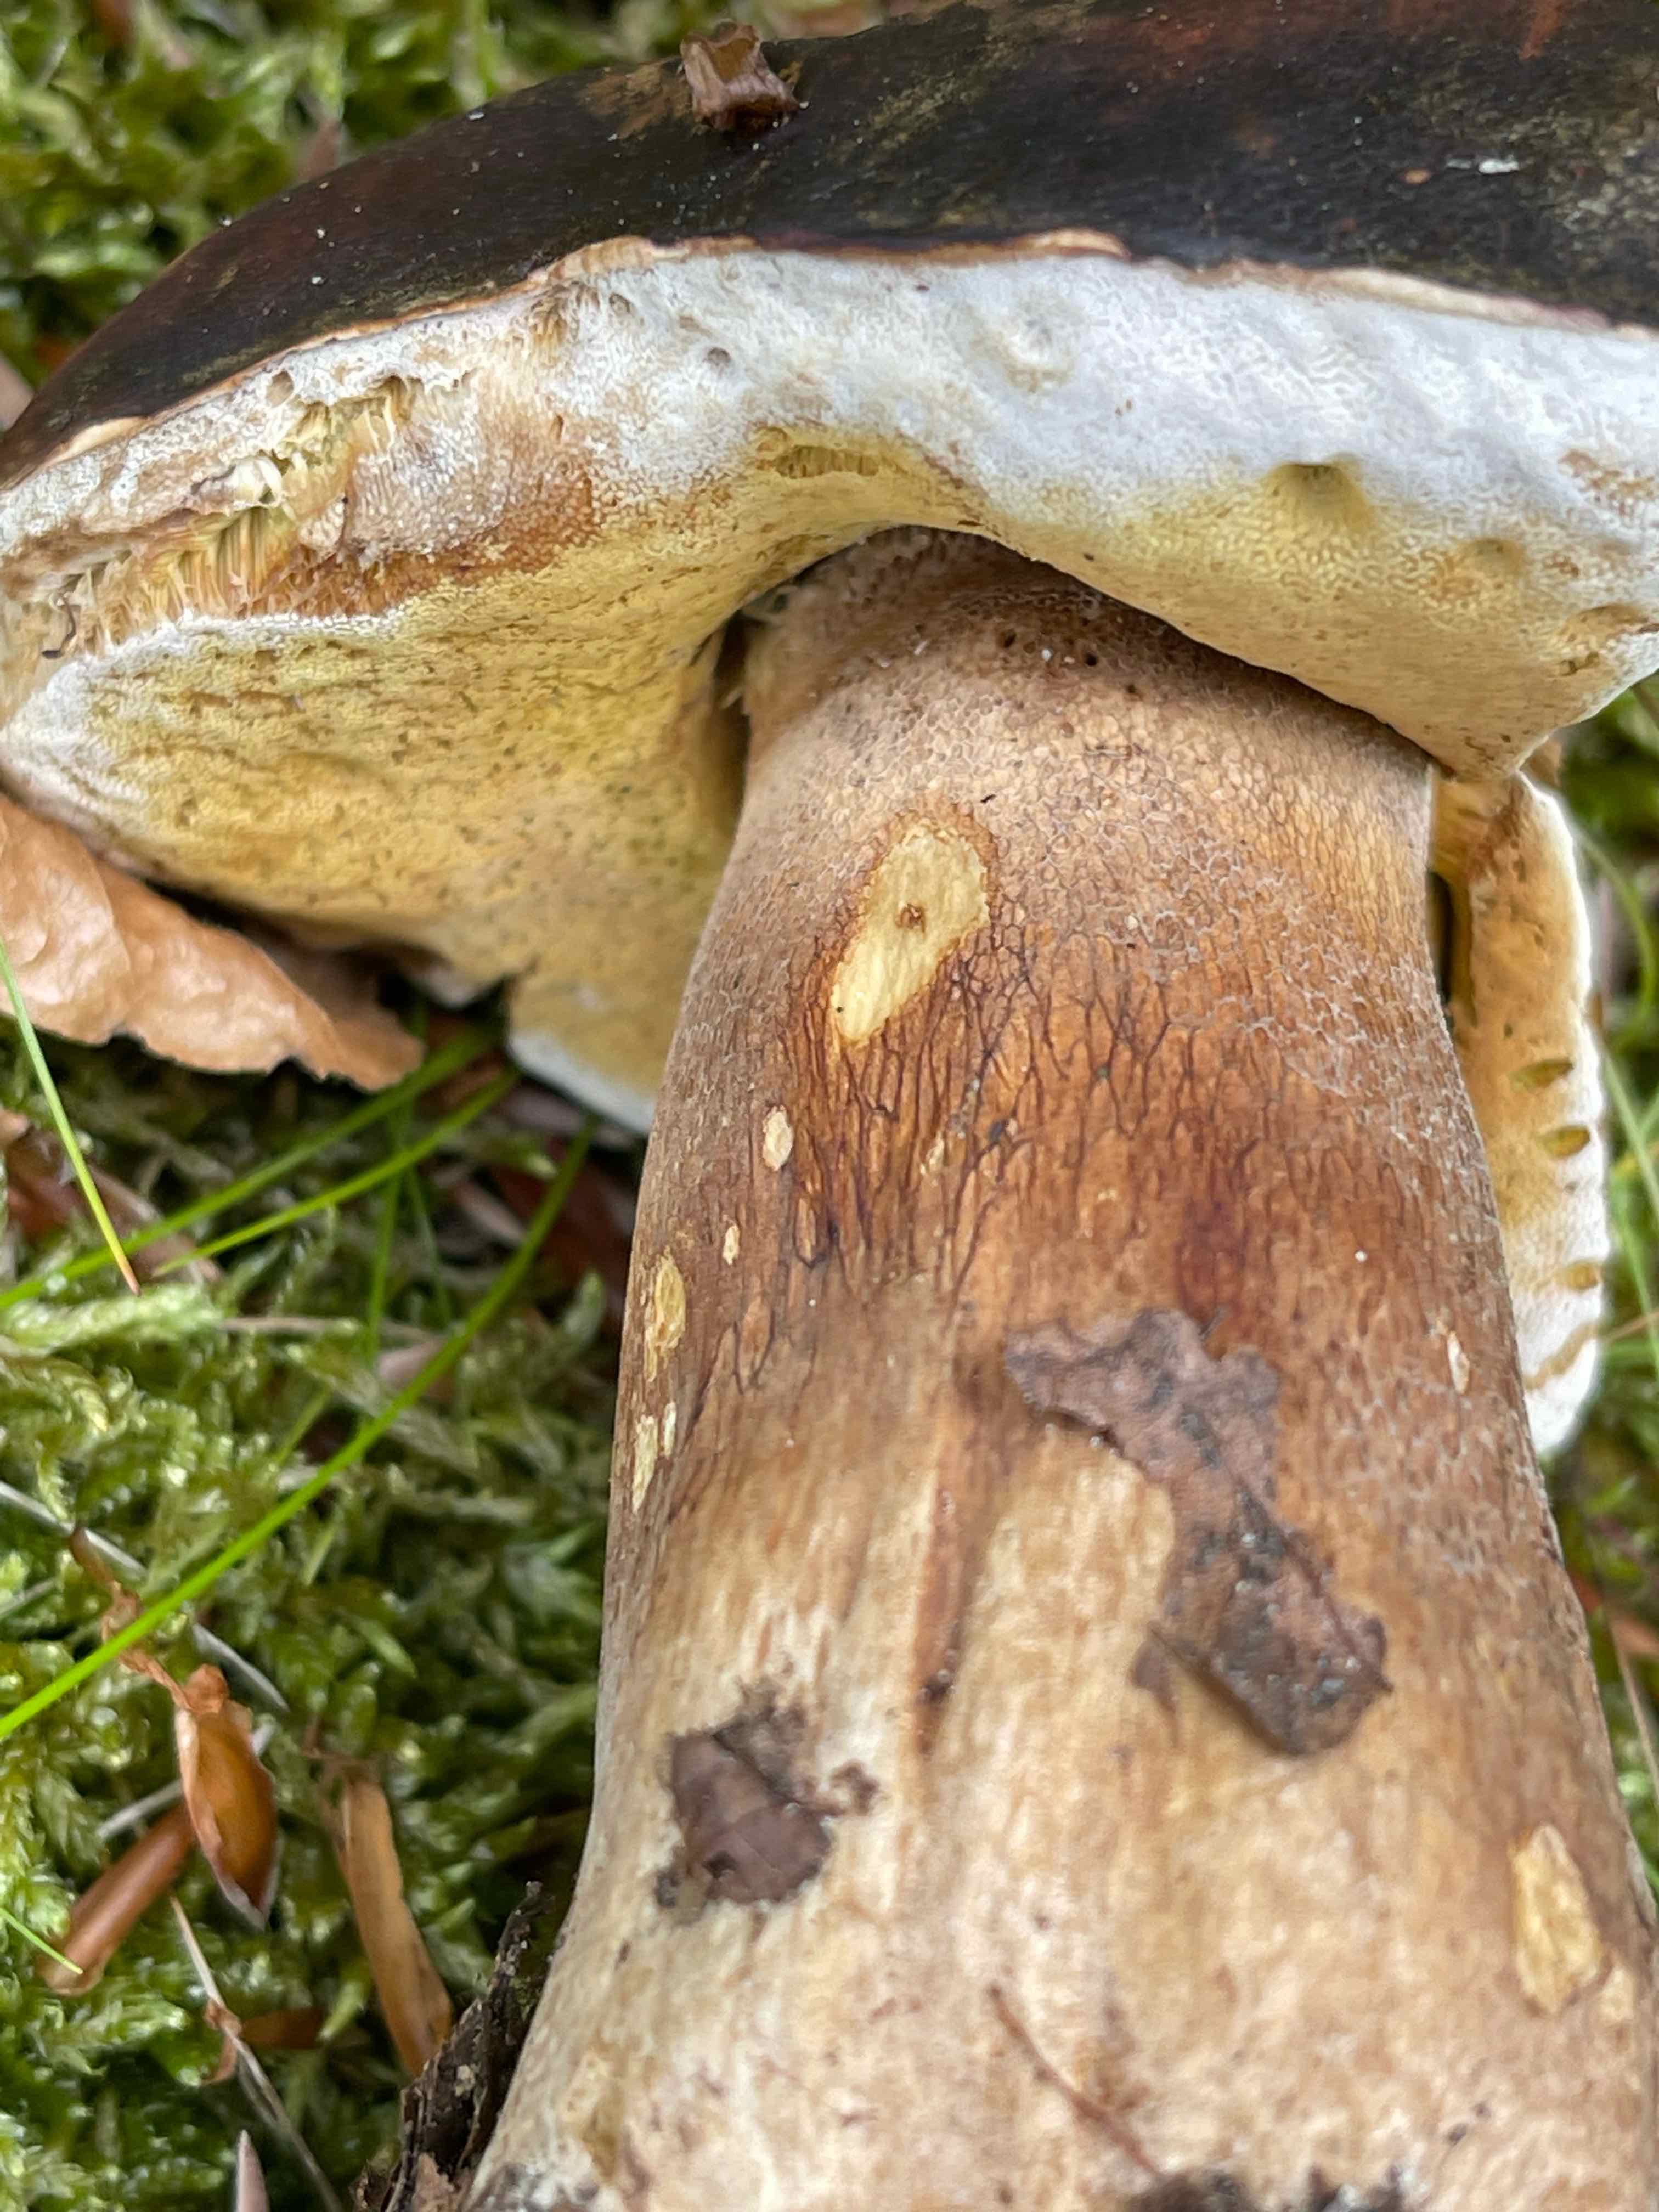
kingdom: Fungi
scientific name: Fungi
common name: bronze-rørhat
